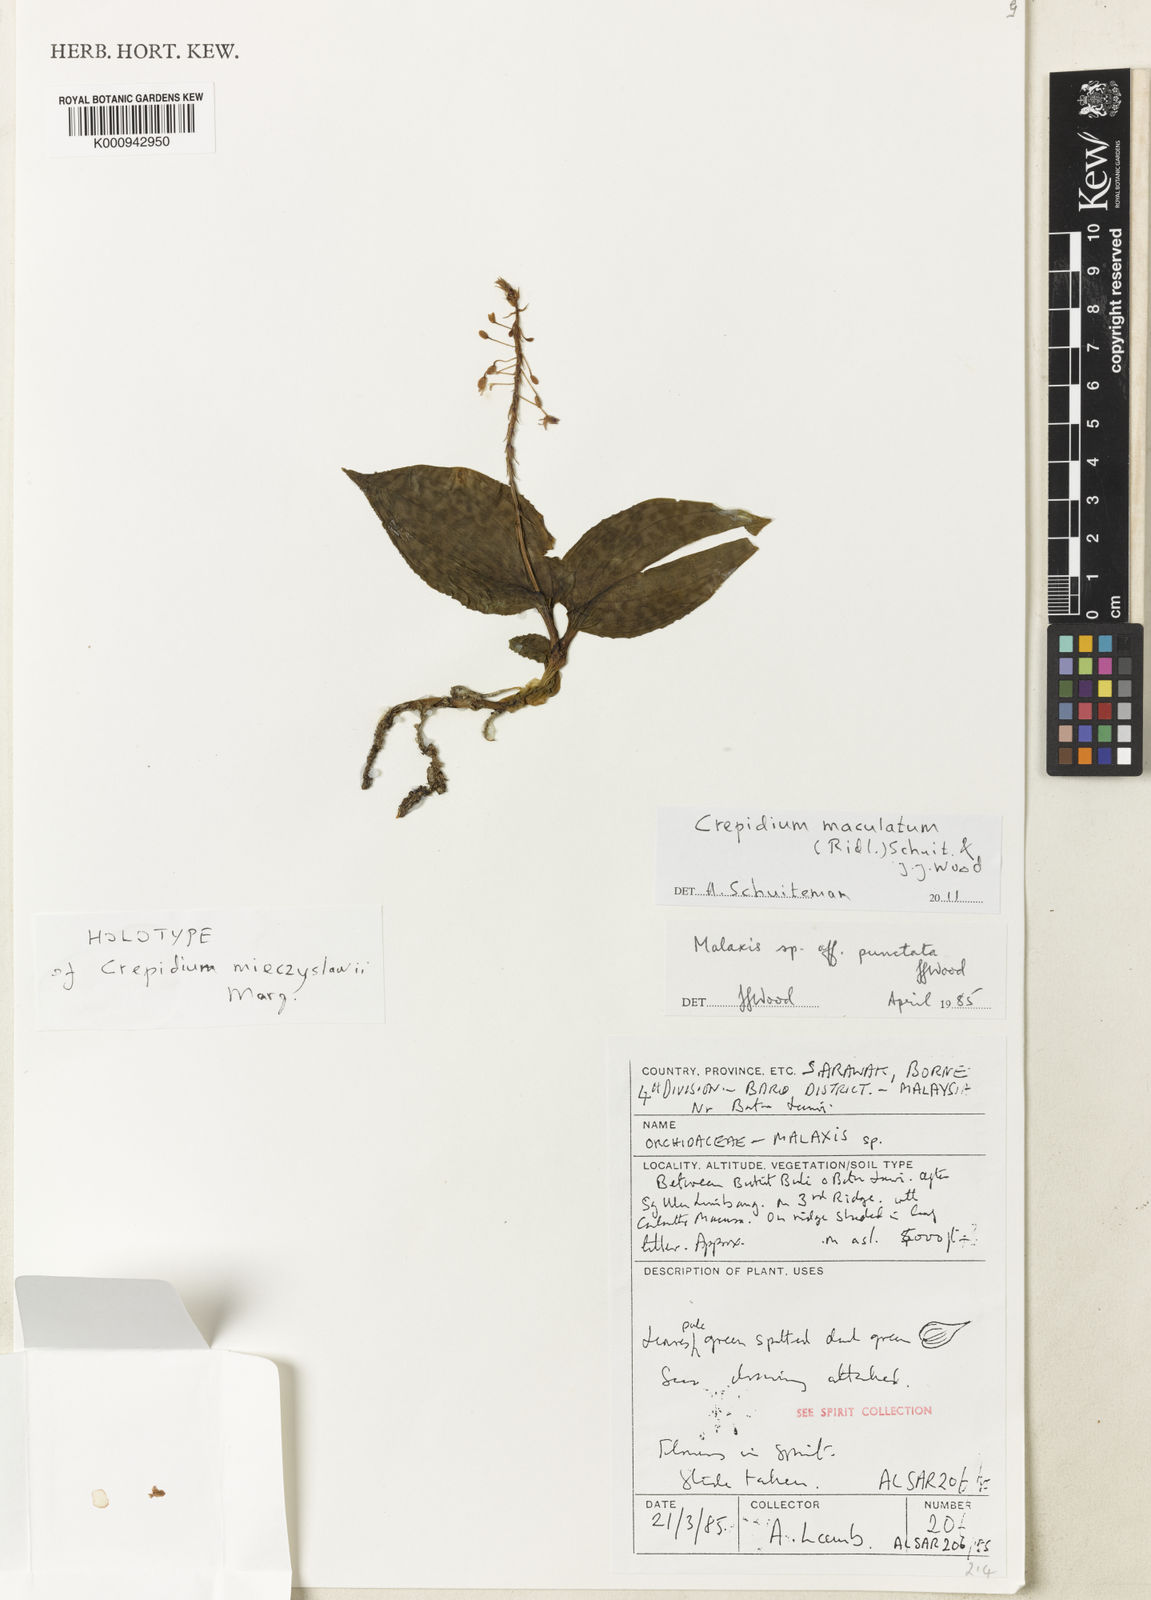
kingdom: Plantae
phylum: Tracheophyta
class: Liliopsida
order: Asparagales
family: Orchidaceae
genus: Crepidium
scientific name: Crepidium maculatum
